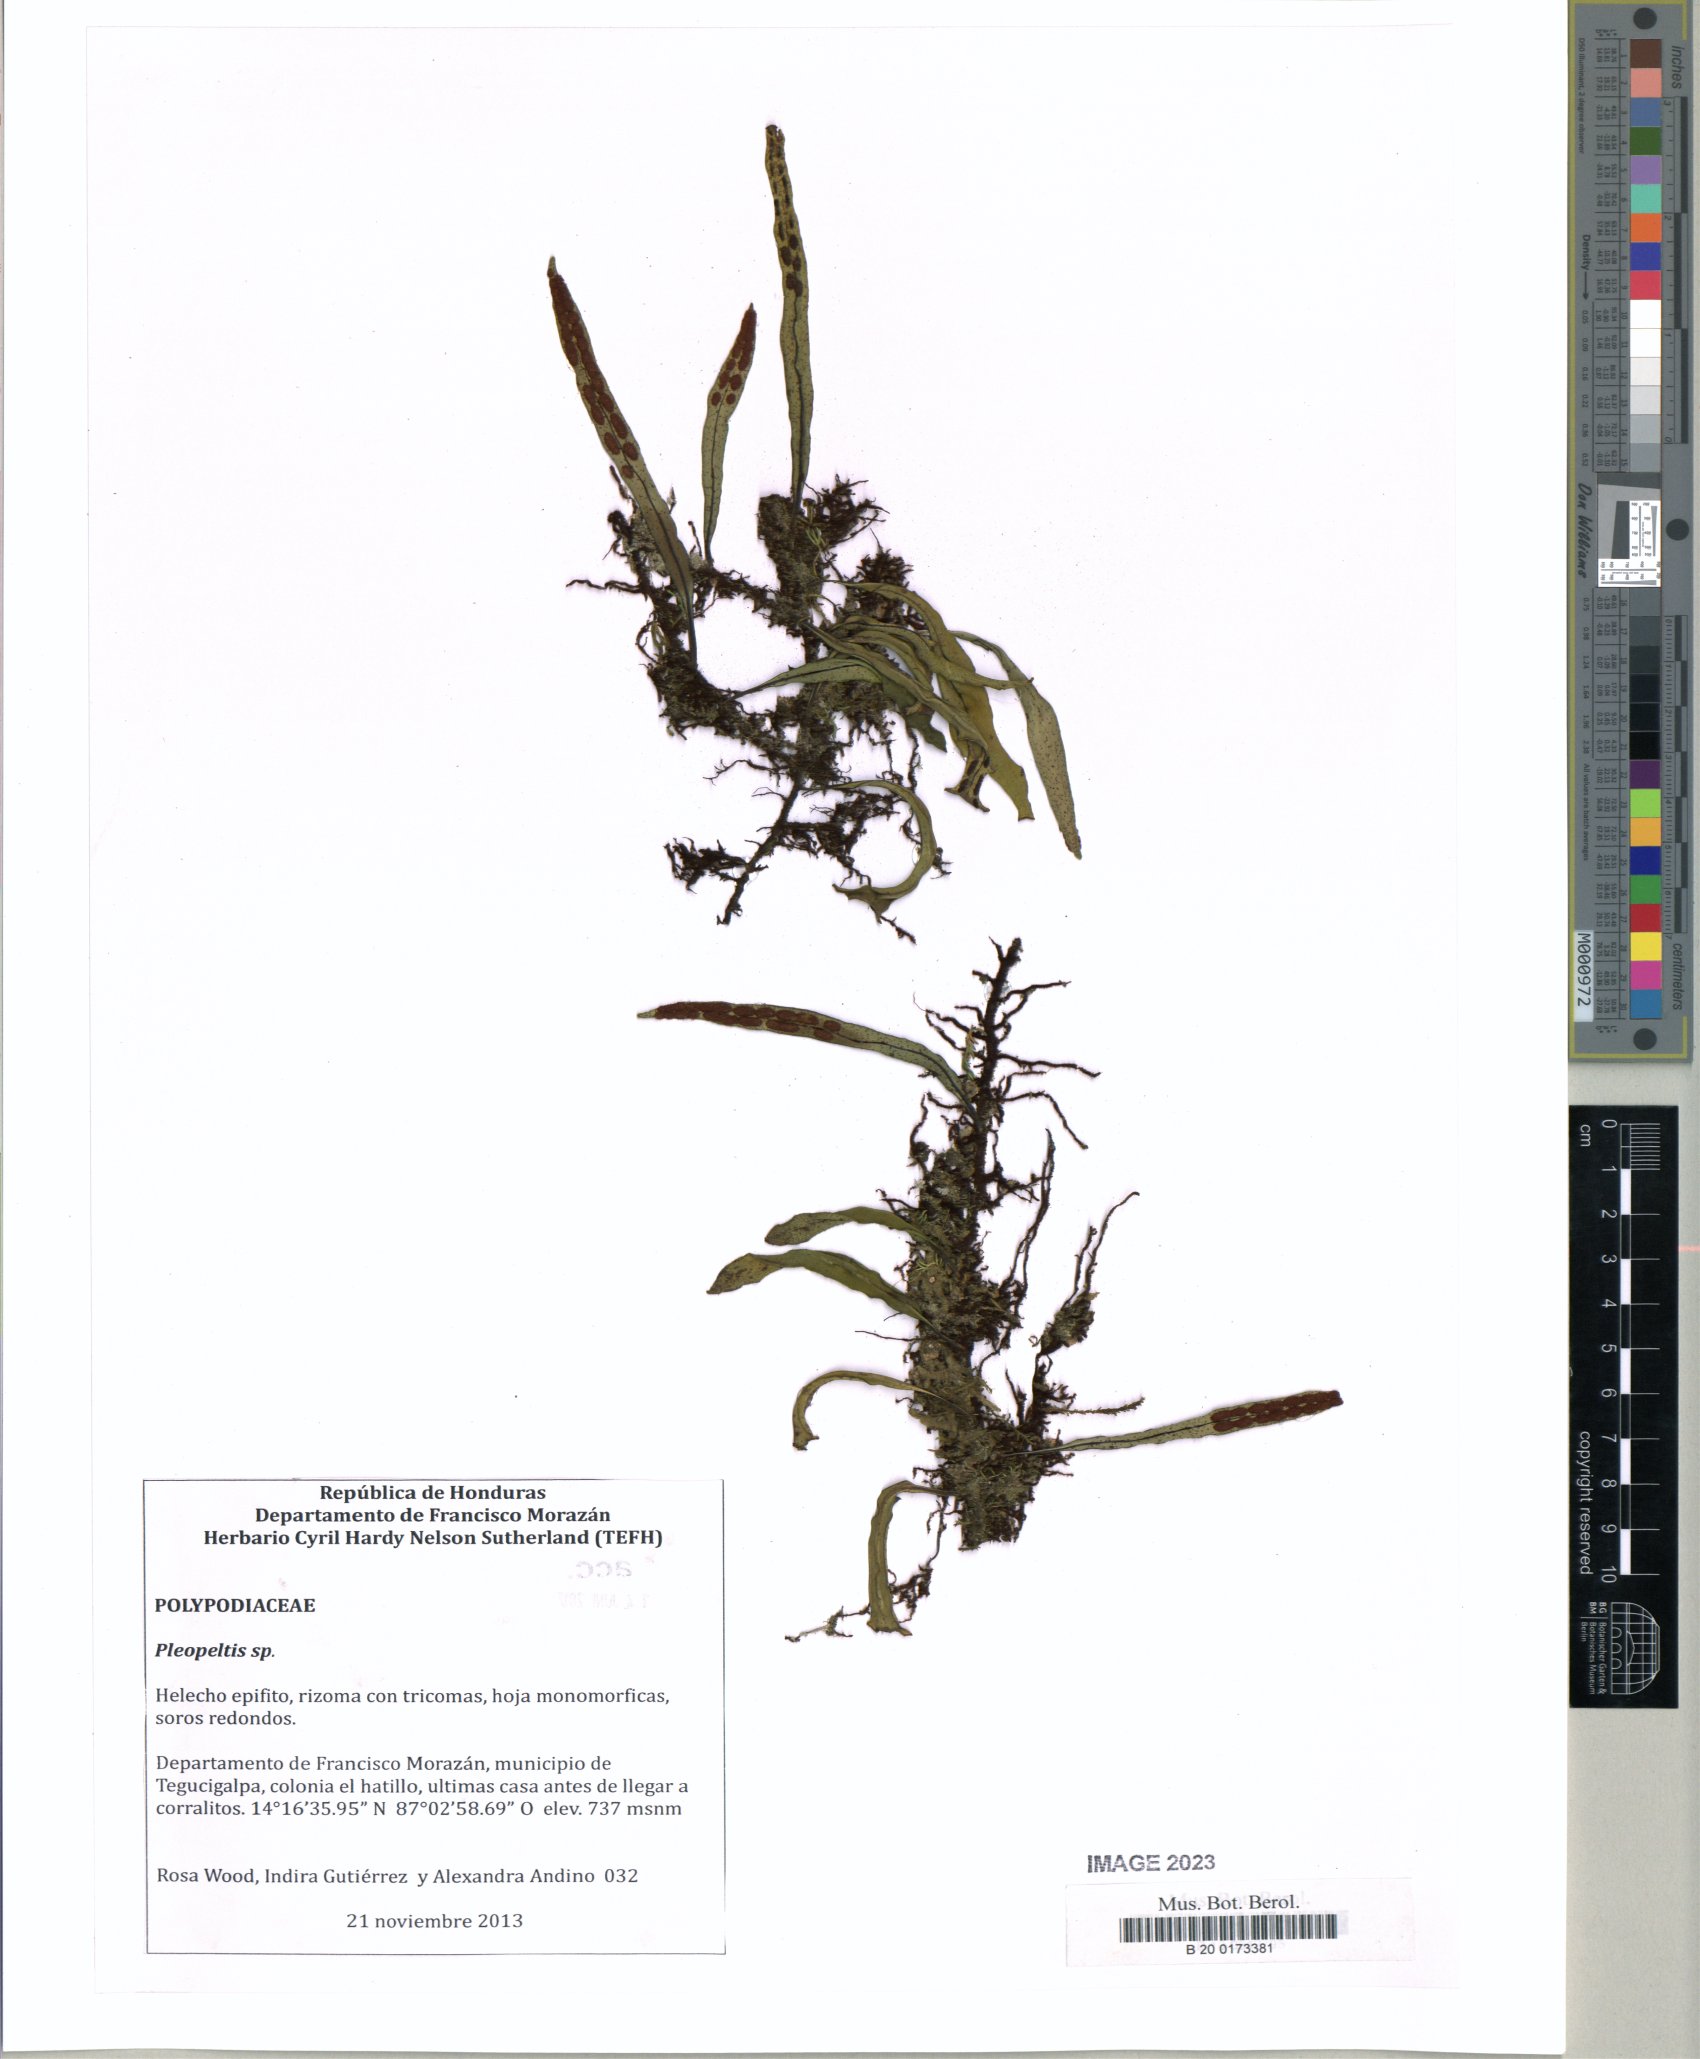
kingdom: Plantae
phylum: Tracheophyta
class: Polypodiopsida
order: Polypodiales
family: Polypodiaceae
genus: Pleopeltis
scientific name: Pleopeltis astrolepis
